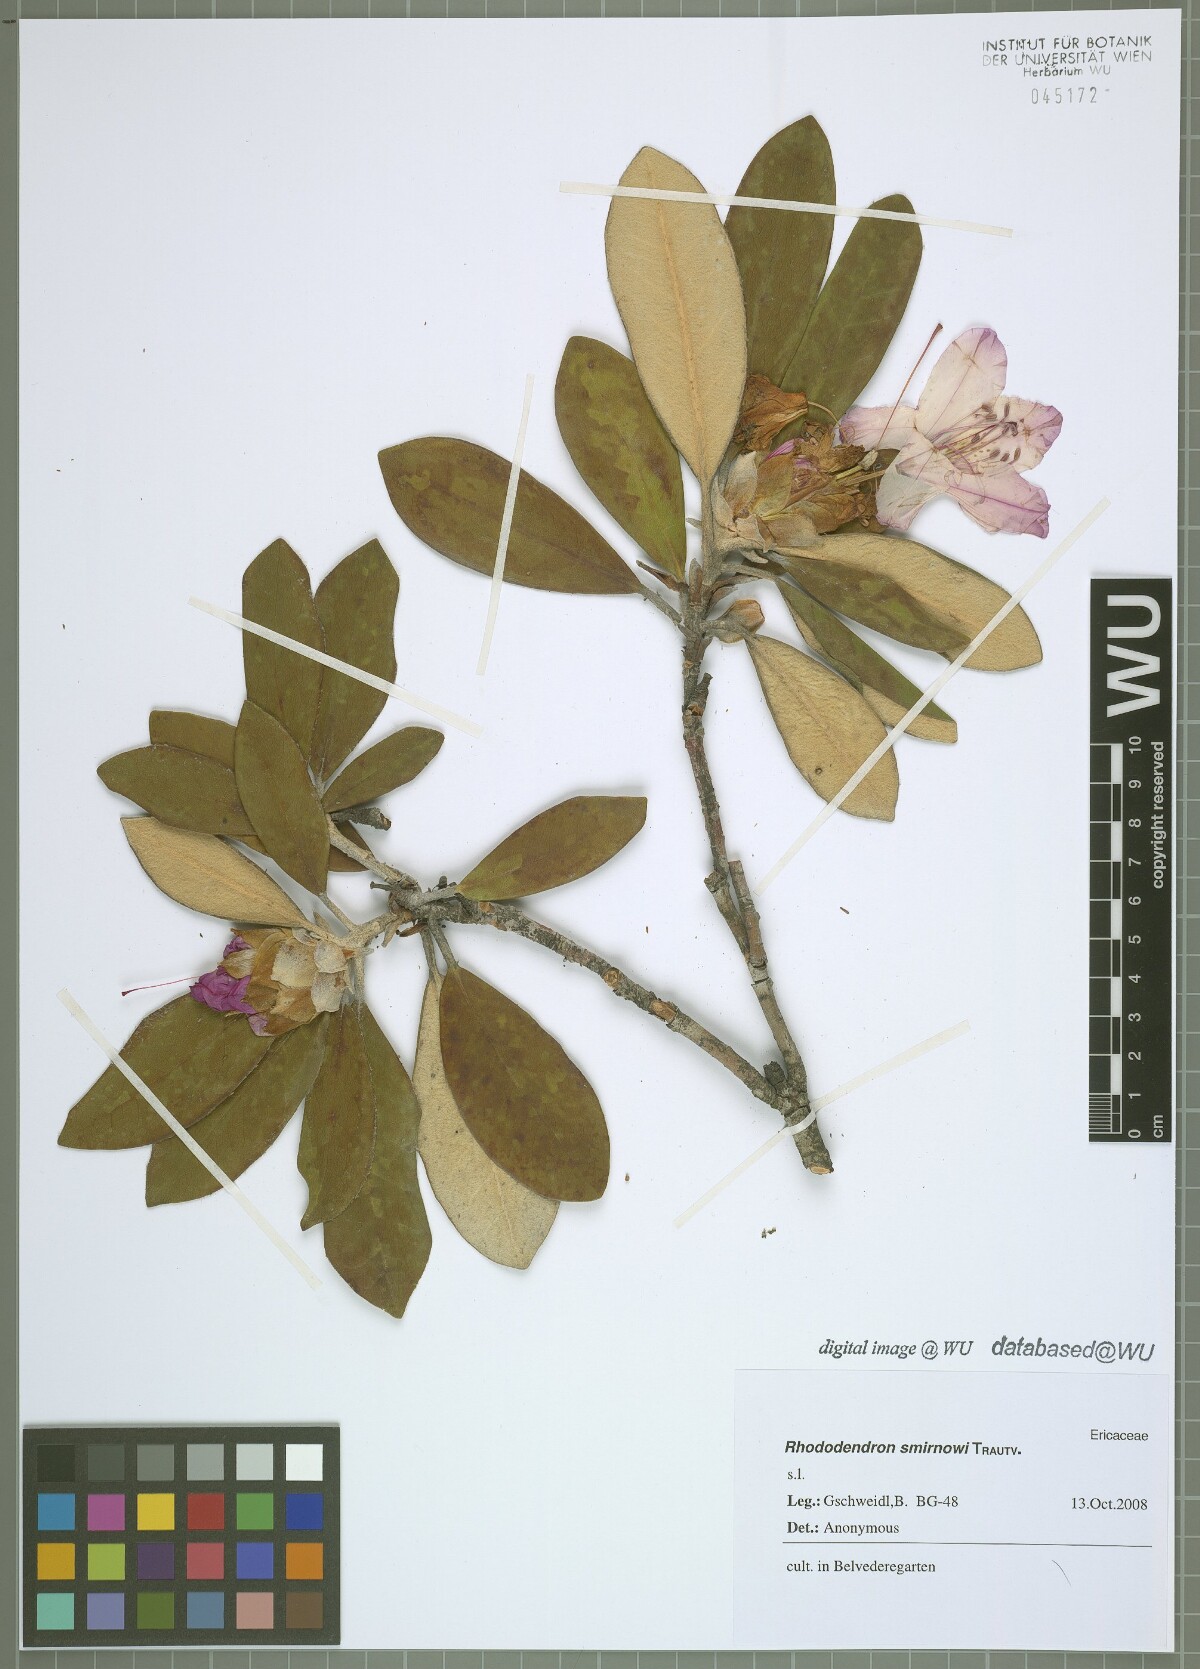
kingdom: Plantae
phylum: Tracheophyta
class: Magnoliopsida
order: Ericales
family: Ericaceae
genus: Rhododendron
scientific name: Rhododendron smirnowii
